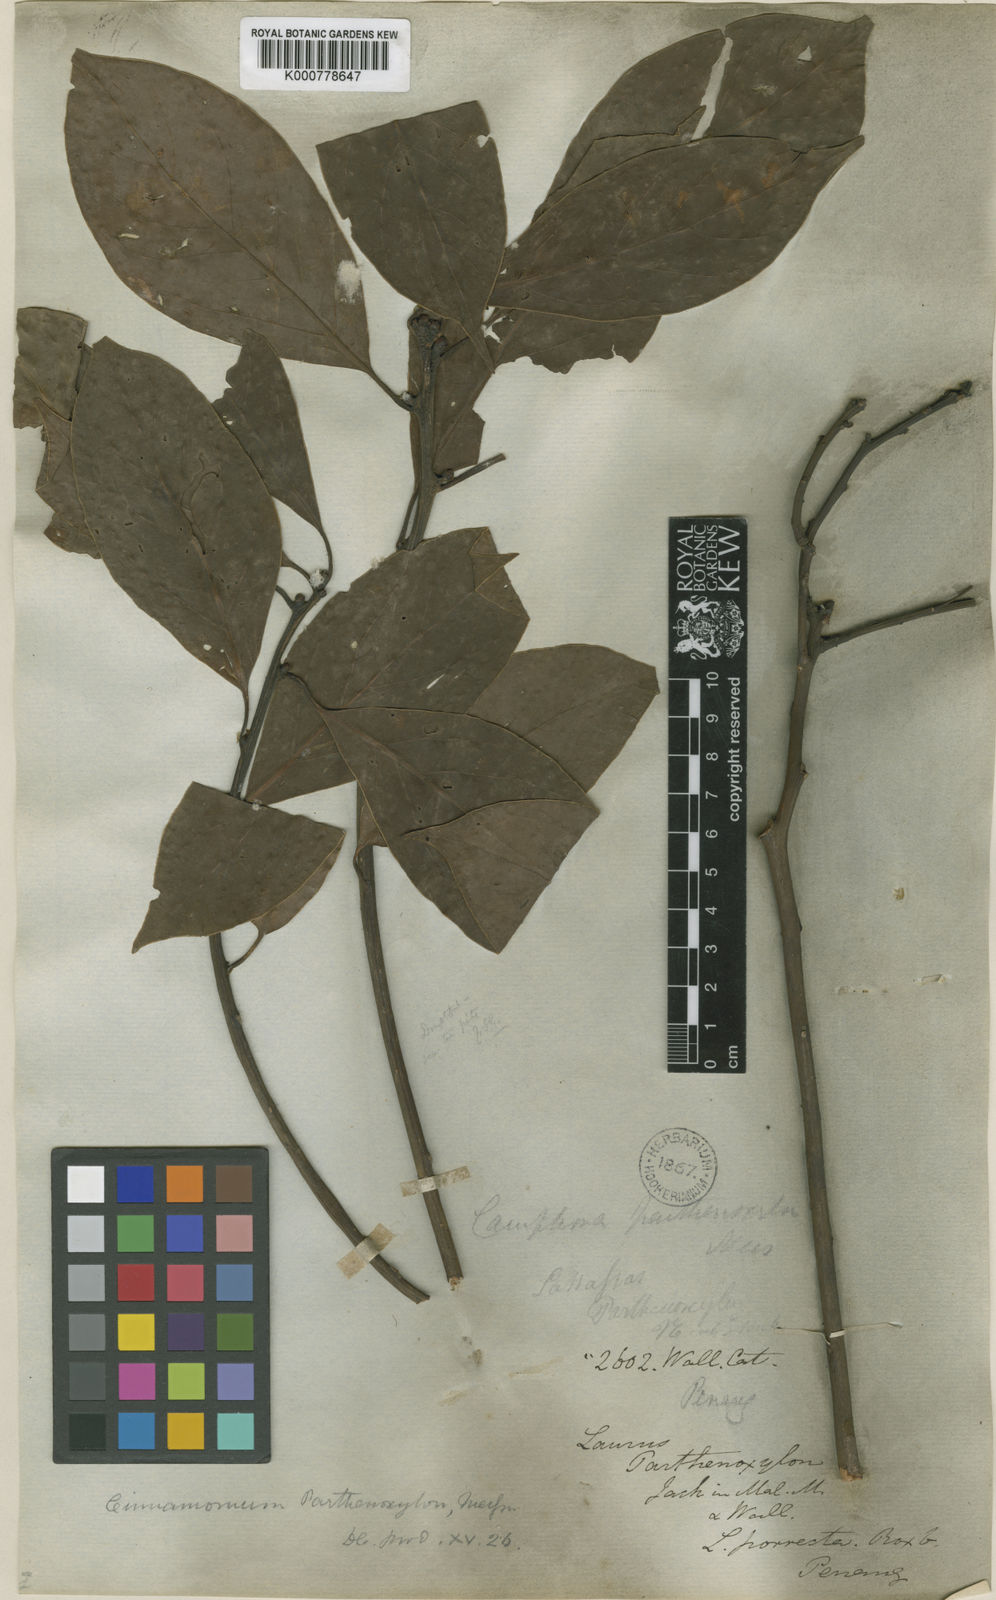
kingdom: Plantae
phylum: Tracheophyta
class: Magnoliopsida
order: Laurales
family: Lauraceae
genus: Cinnamomum
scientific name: Cinnamomum
